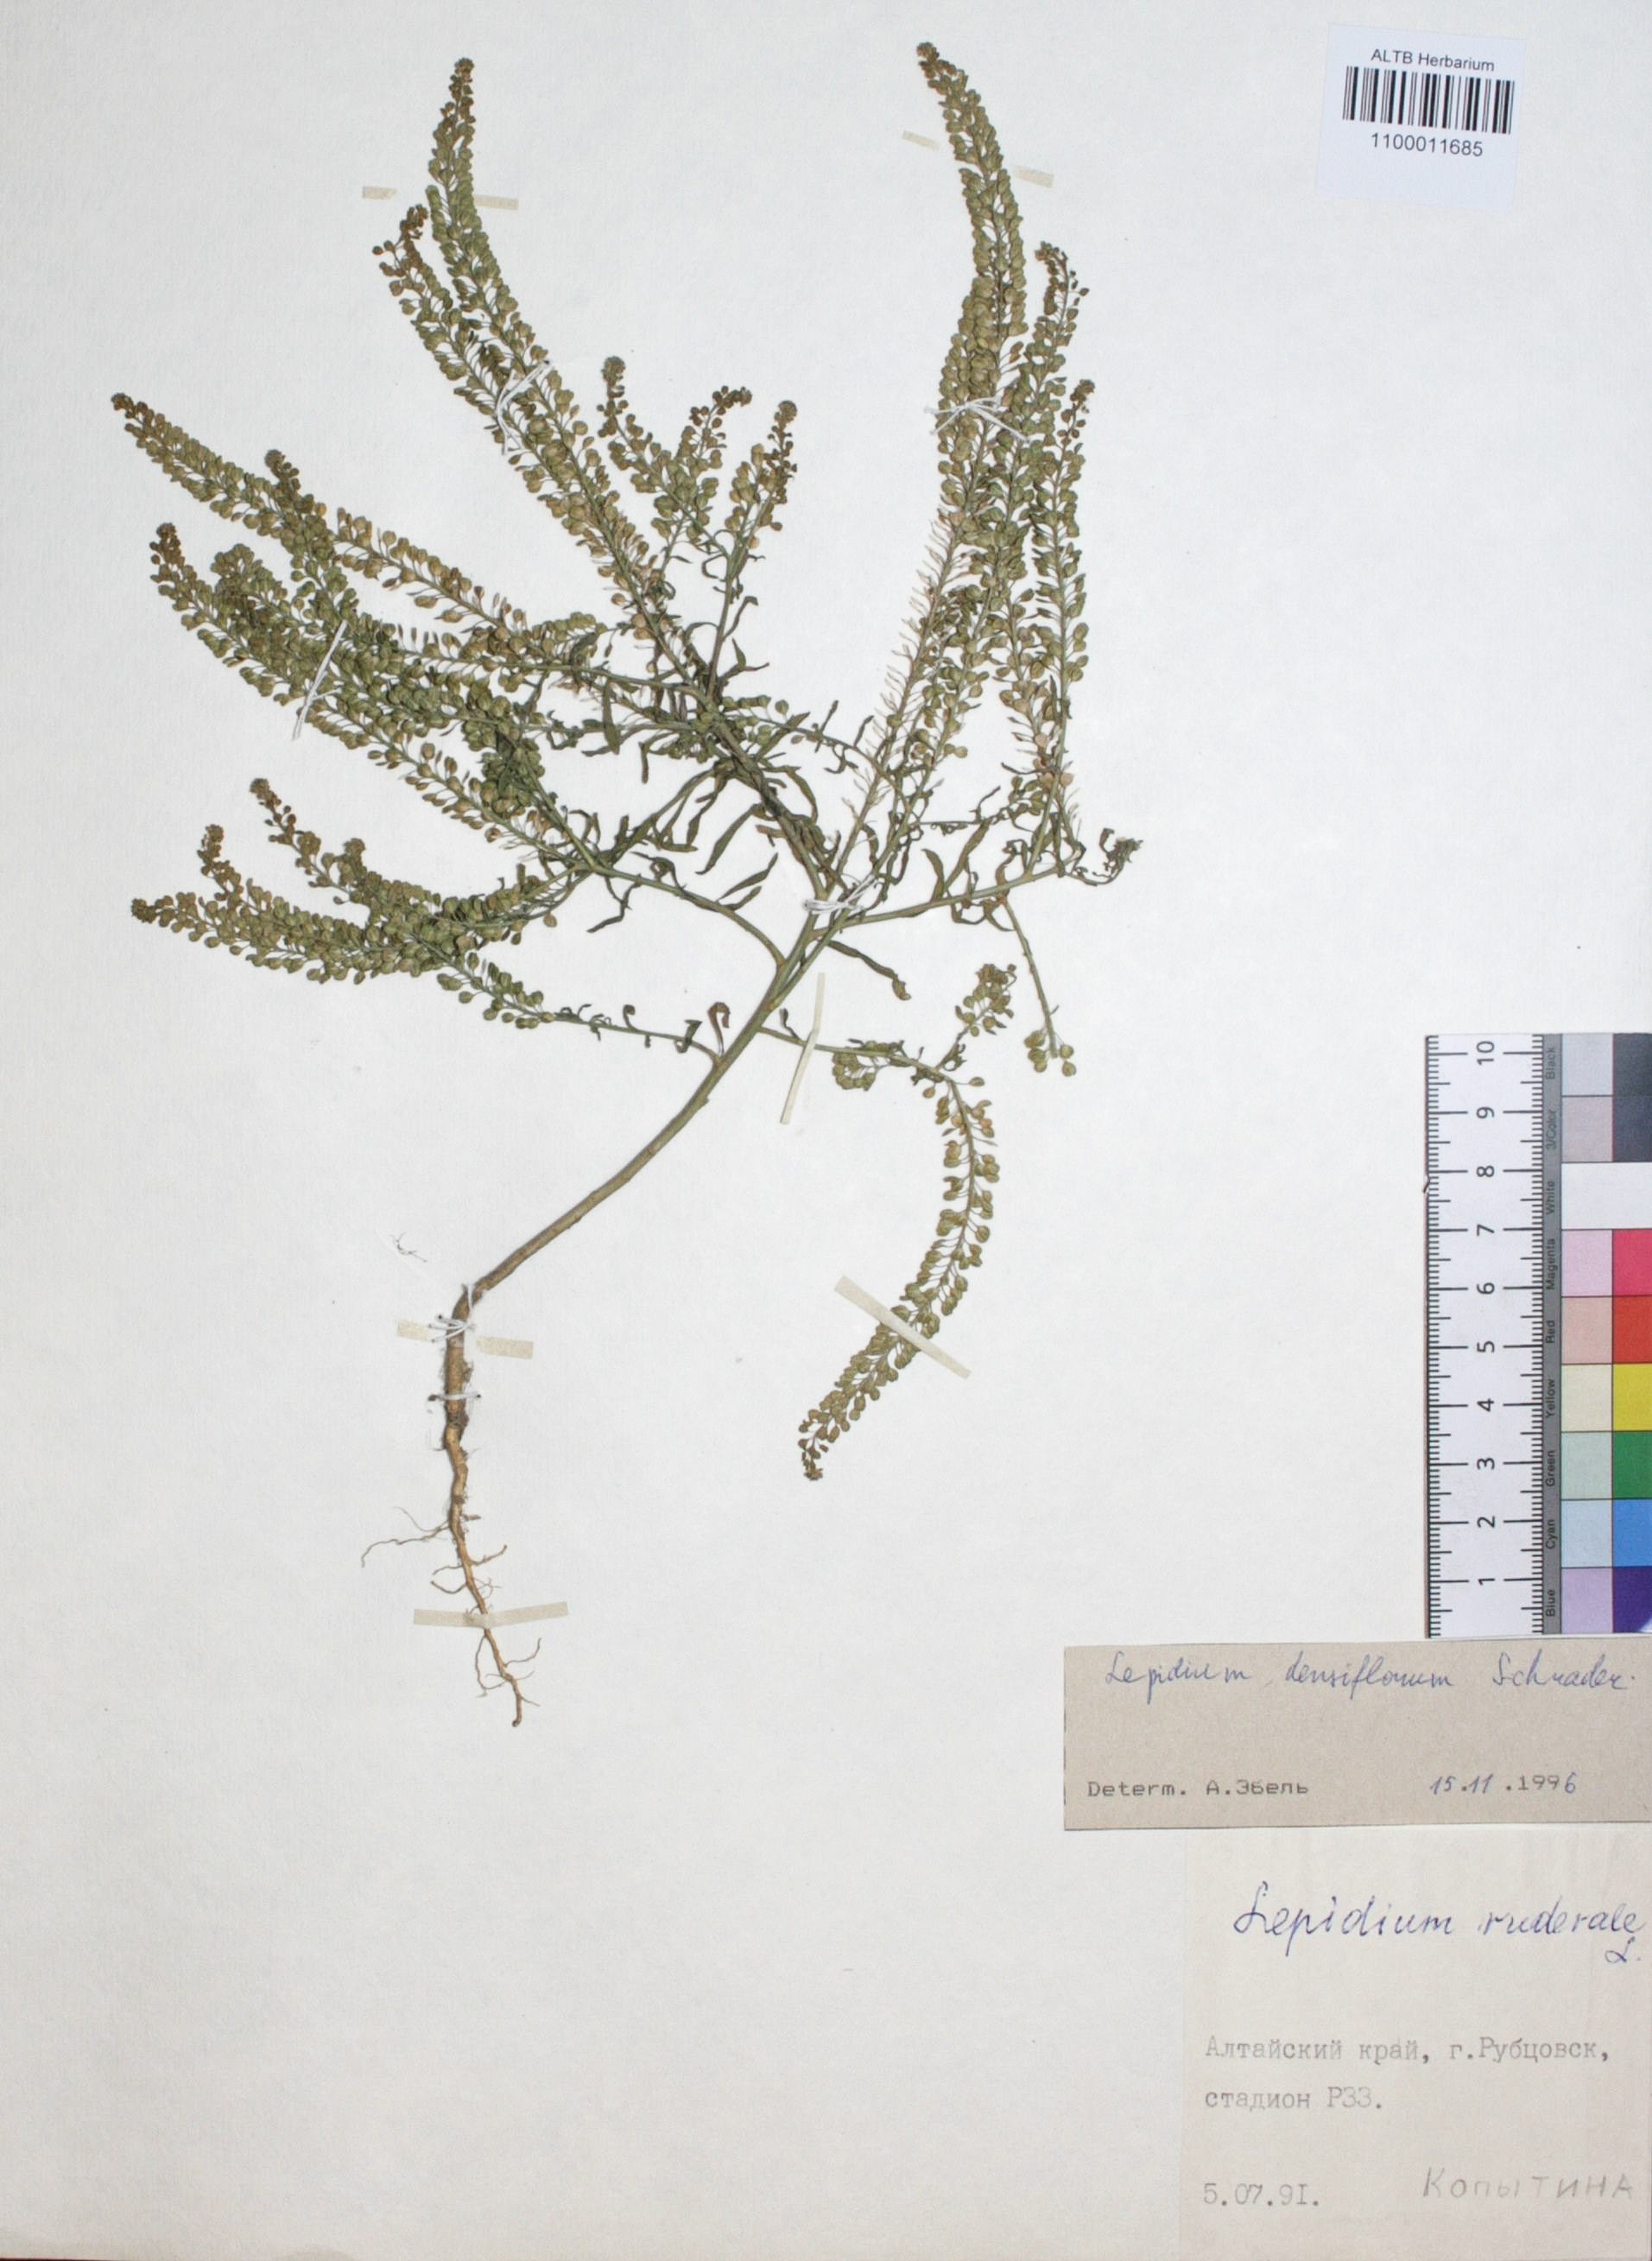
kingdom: Plantae
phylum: Tracheophyta
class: Magnoliopsida
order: Brassicales
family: Brassicaceae
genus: Lepidium
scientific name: Lepidium densiflorum
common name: Miner's pepperwort
